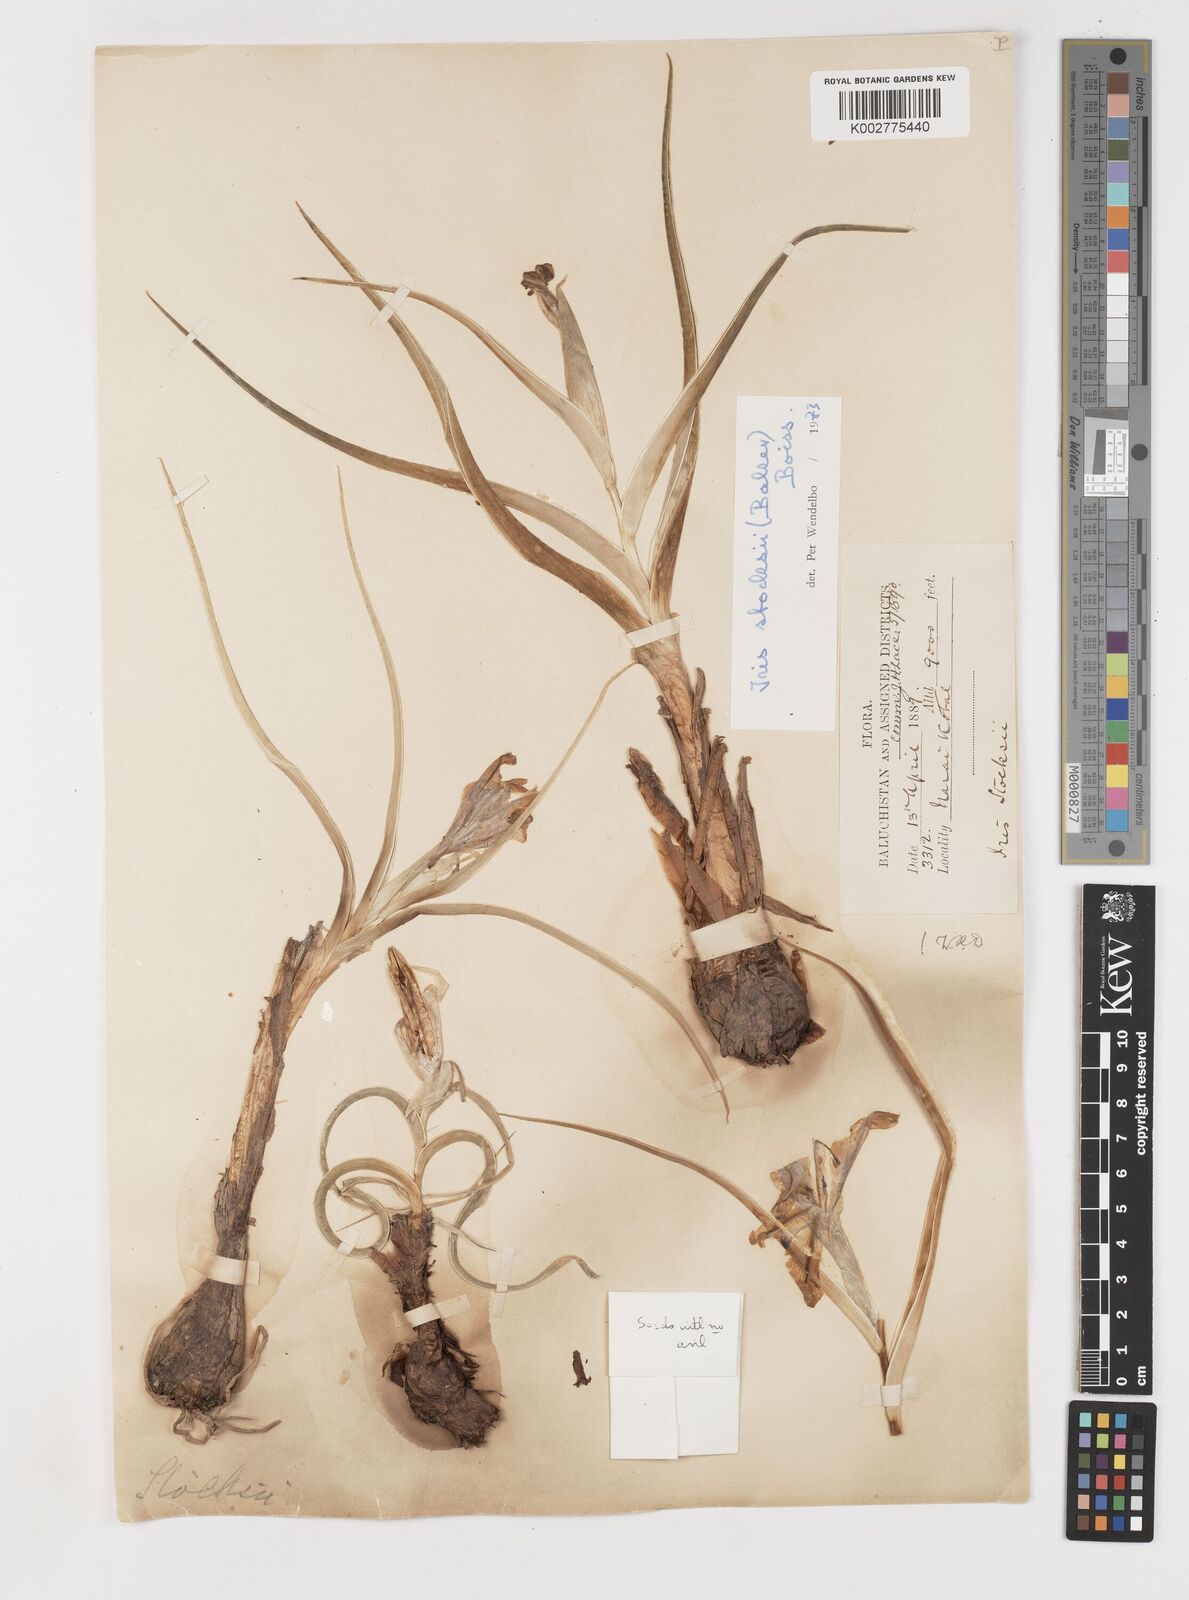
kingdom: Plantae
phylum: Tracheophyta
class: Liliopsida
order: Asparagales
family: Iridaceae
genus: Iris
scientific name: Iris stocksii
